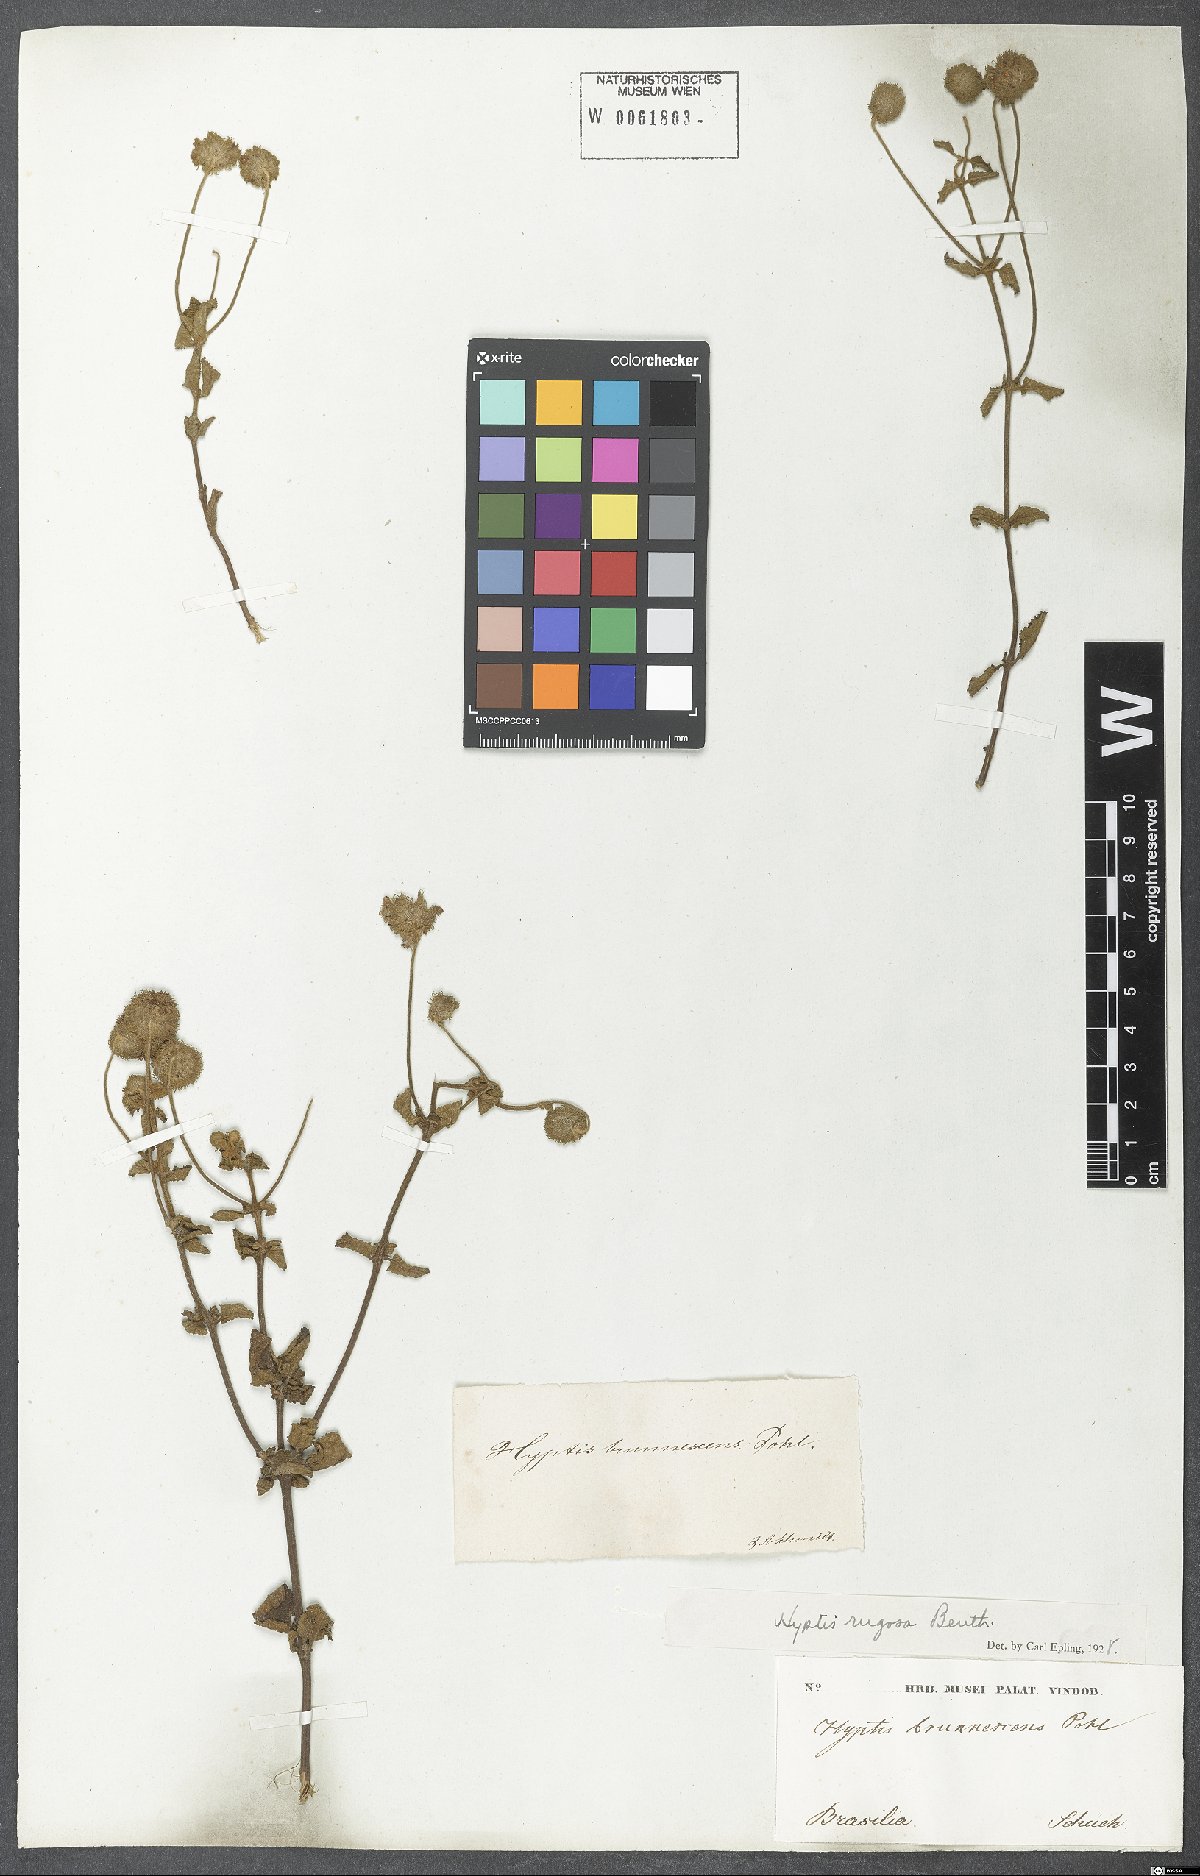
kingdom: Plantae
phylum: Tracheophyta
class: Magnoliopsida
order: Lamiales
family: Lamiaceae
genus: Cyanocephalus
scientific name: Cyanocephalus rugosus
